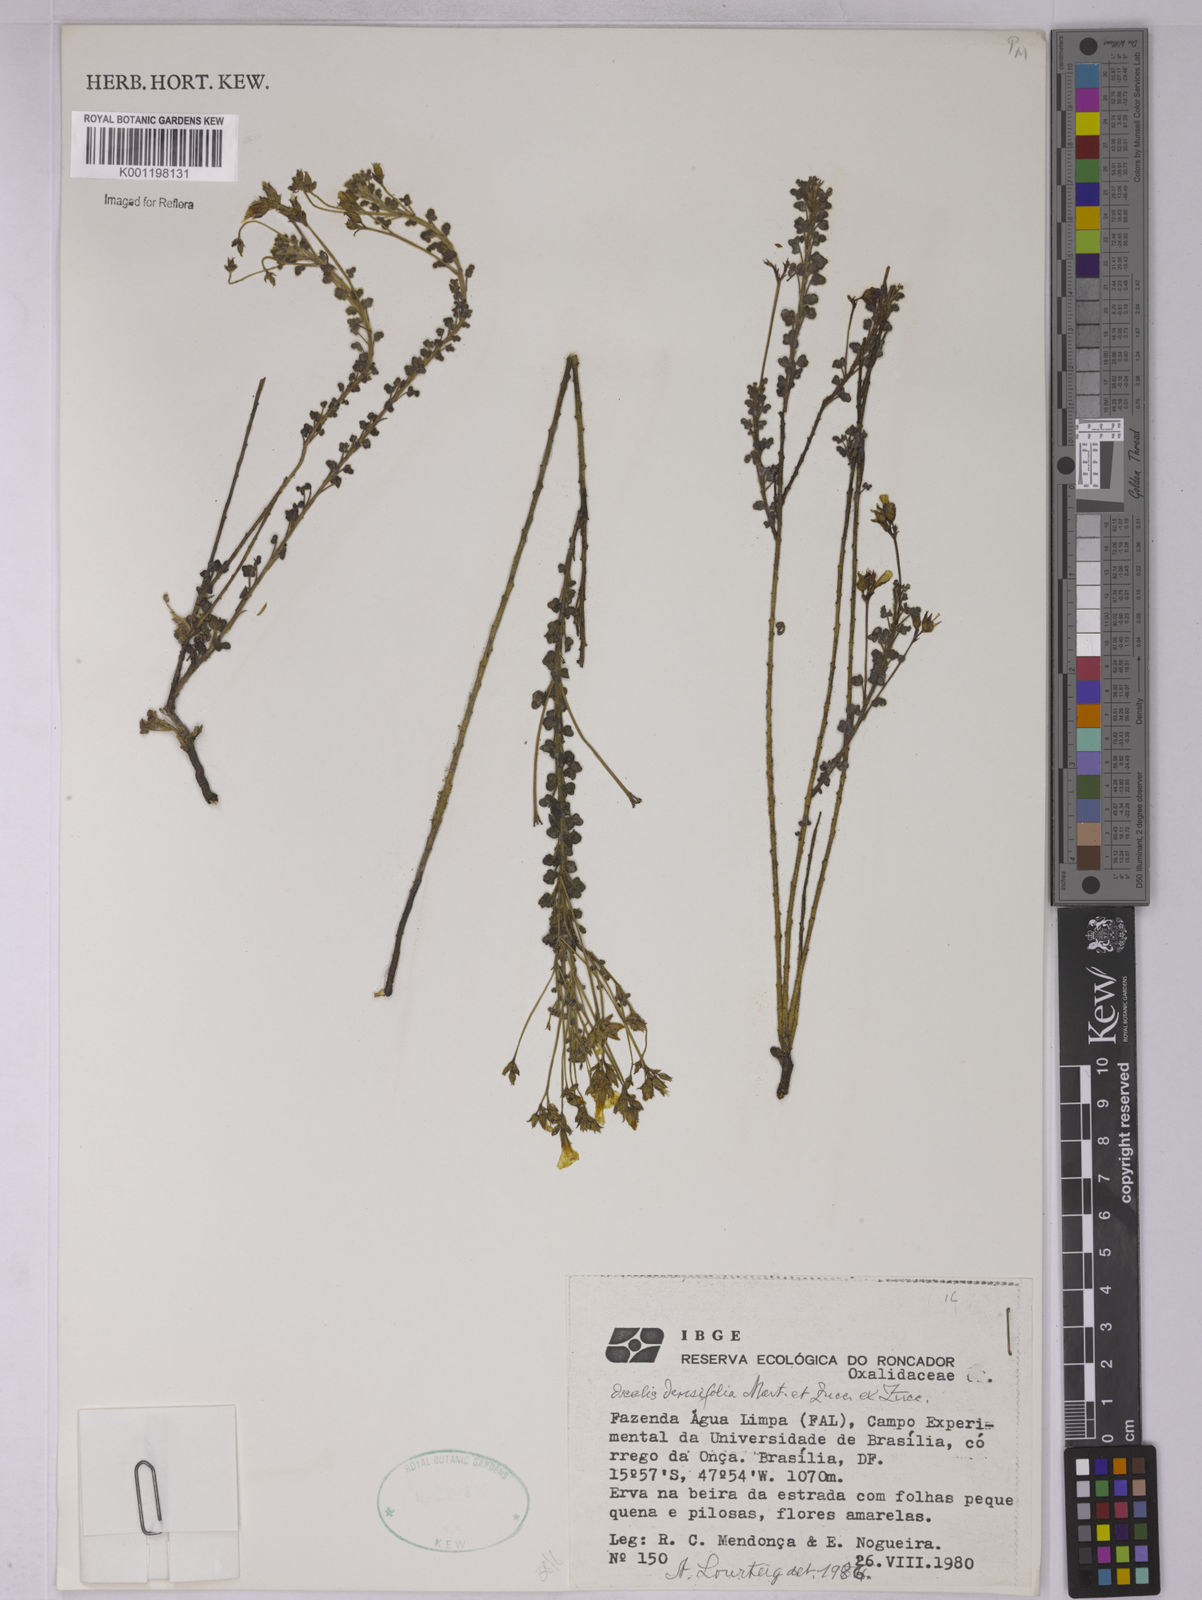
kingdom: Plantae
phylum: Tracheophyta
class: Magnoliopsida
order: Oxalidales
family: Oxalidaceae
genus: Oxalis
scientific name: Oxalis densifolia
